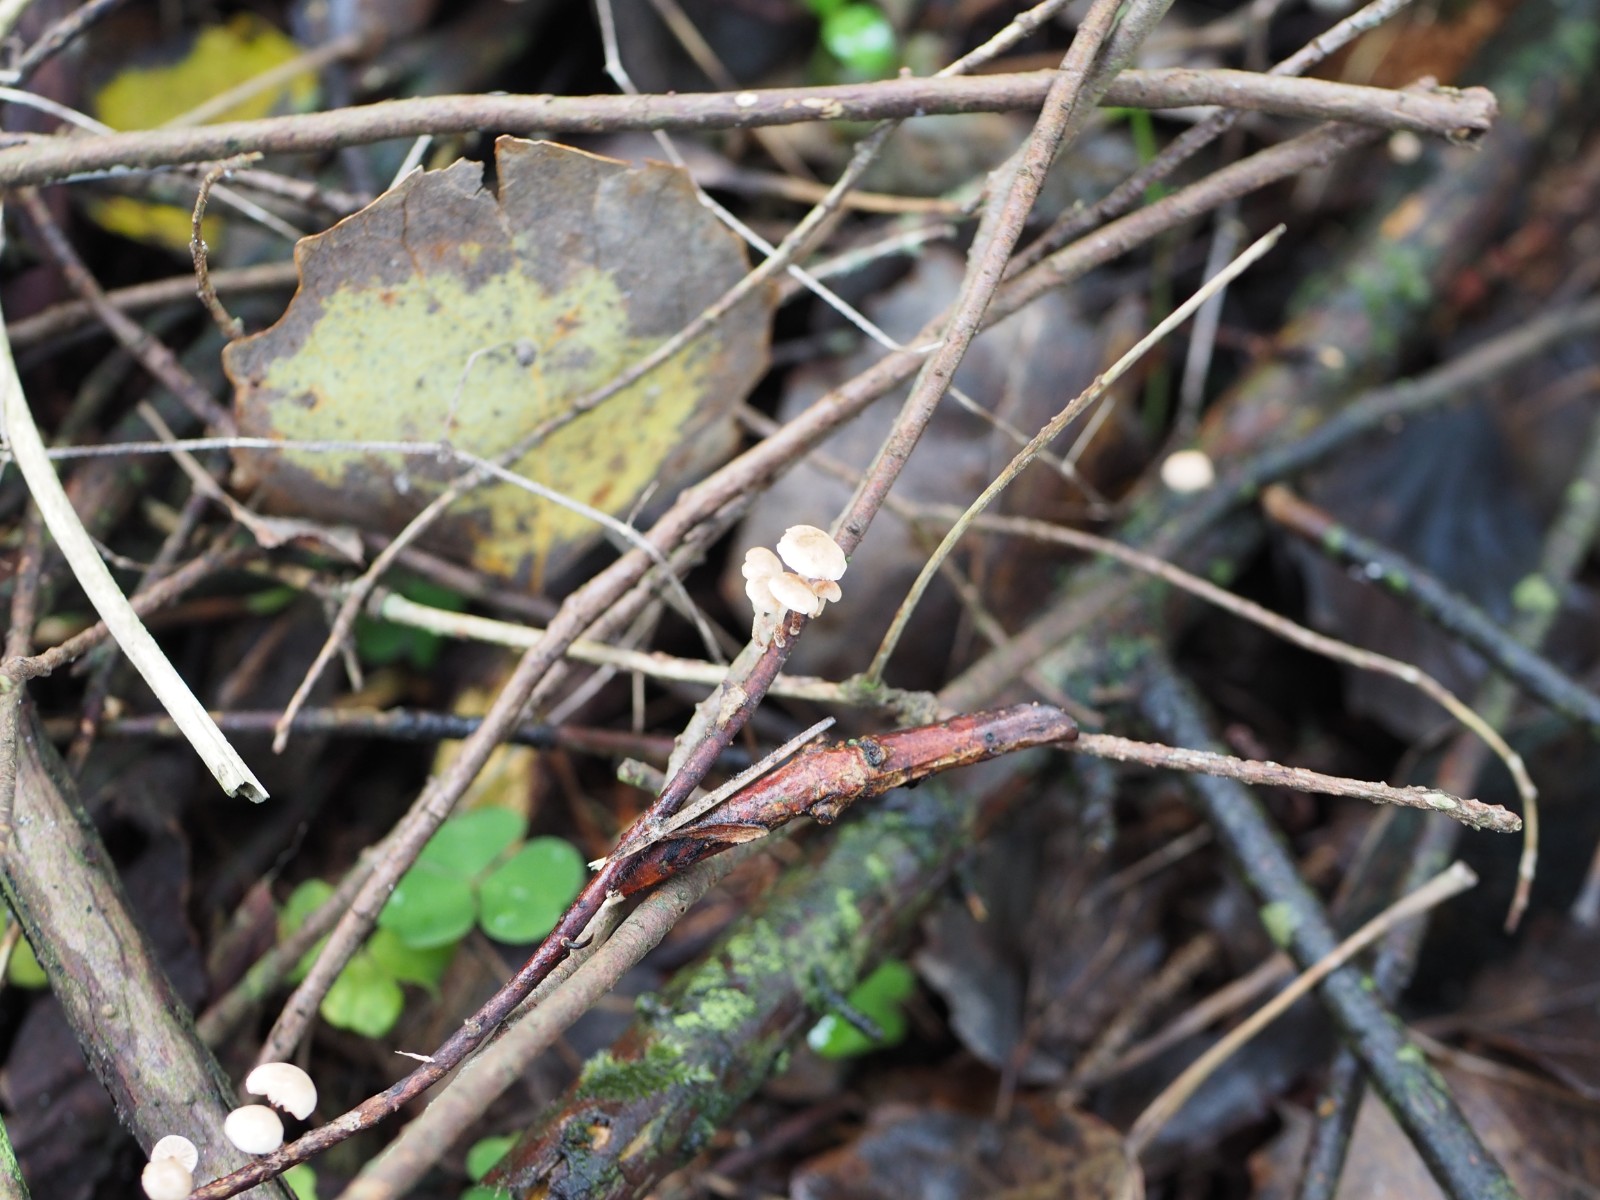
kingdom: Fungi
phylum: Basidiomycota
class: Agaricomycetes
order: Agaricales
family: Omphalotaceae
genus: Collybiopsis
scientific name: Collybiopsis ramealis
